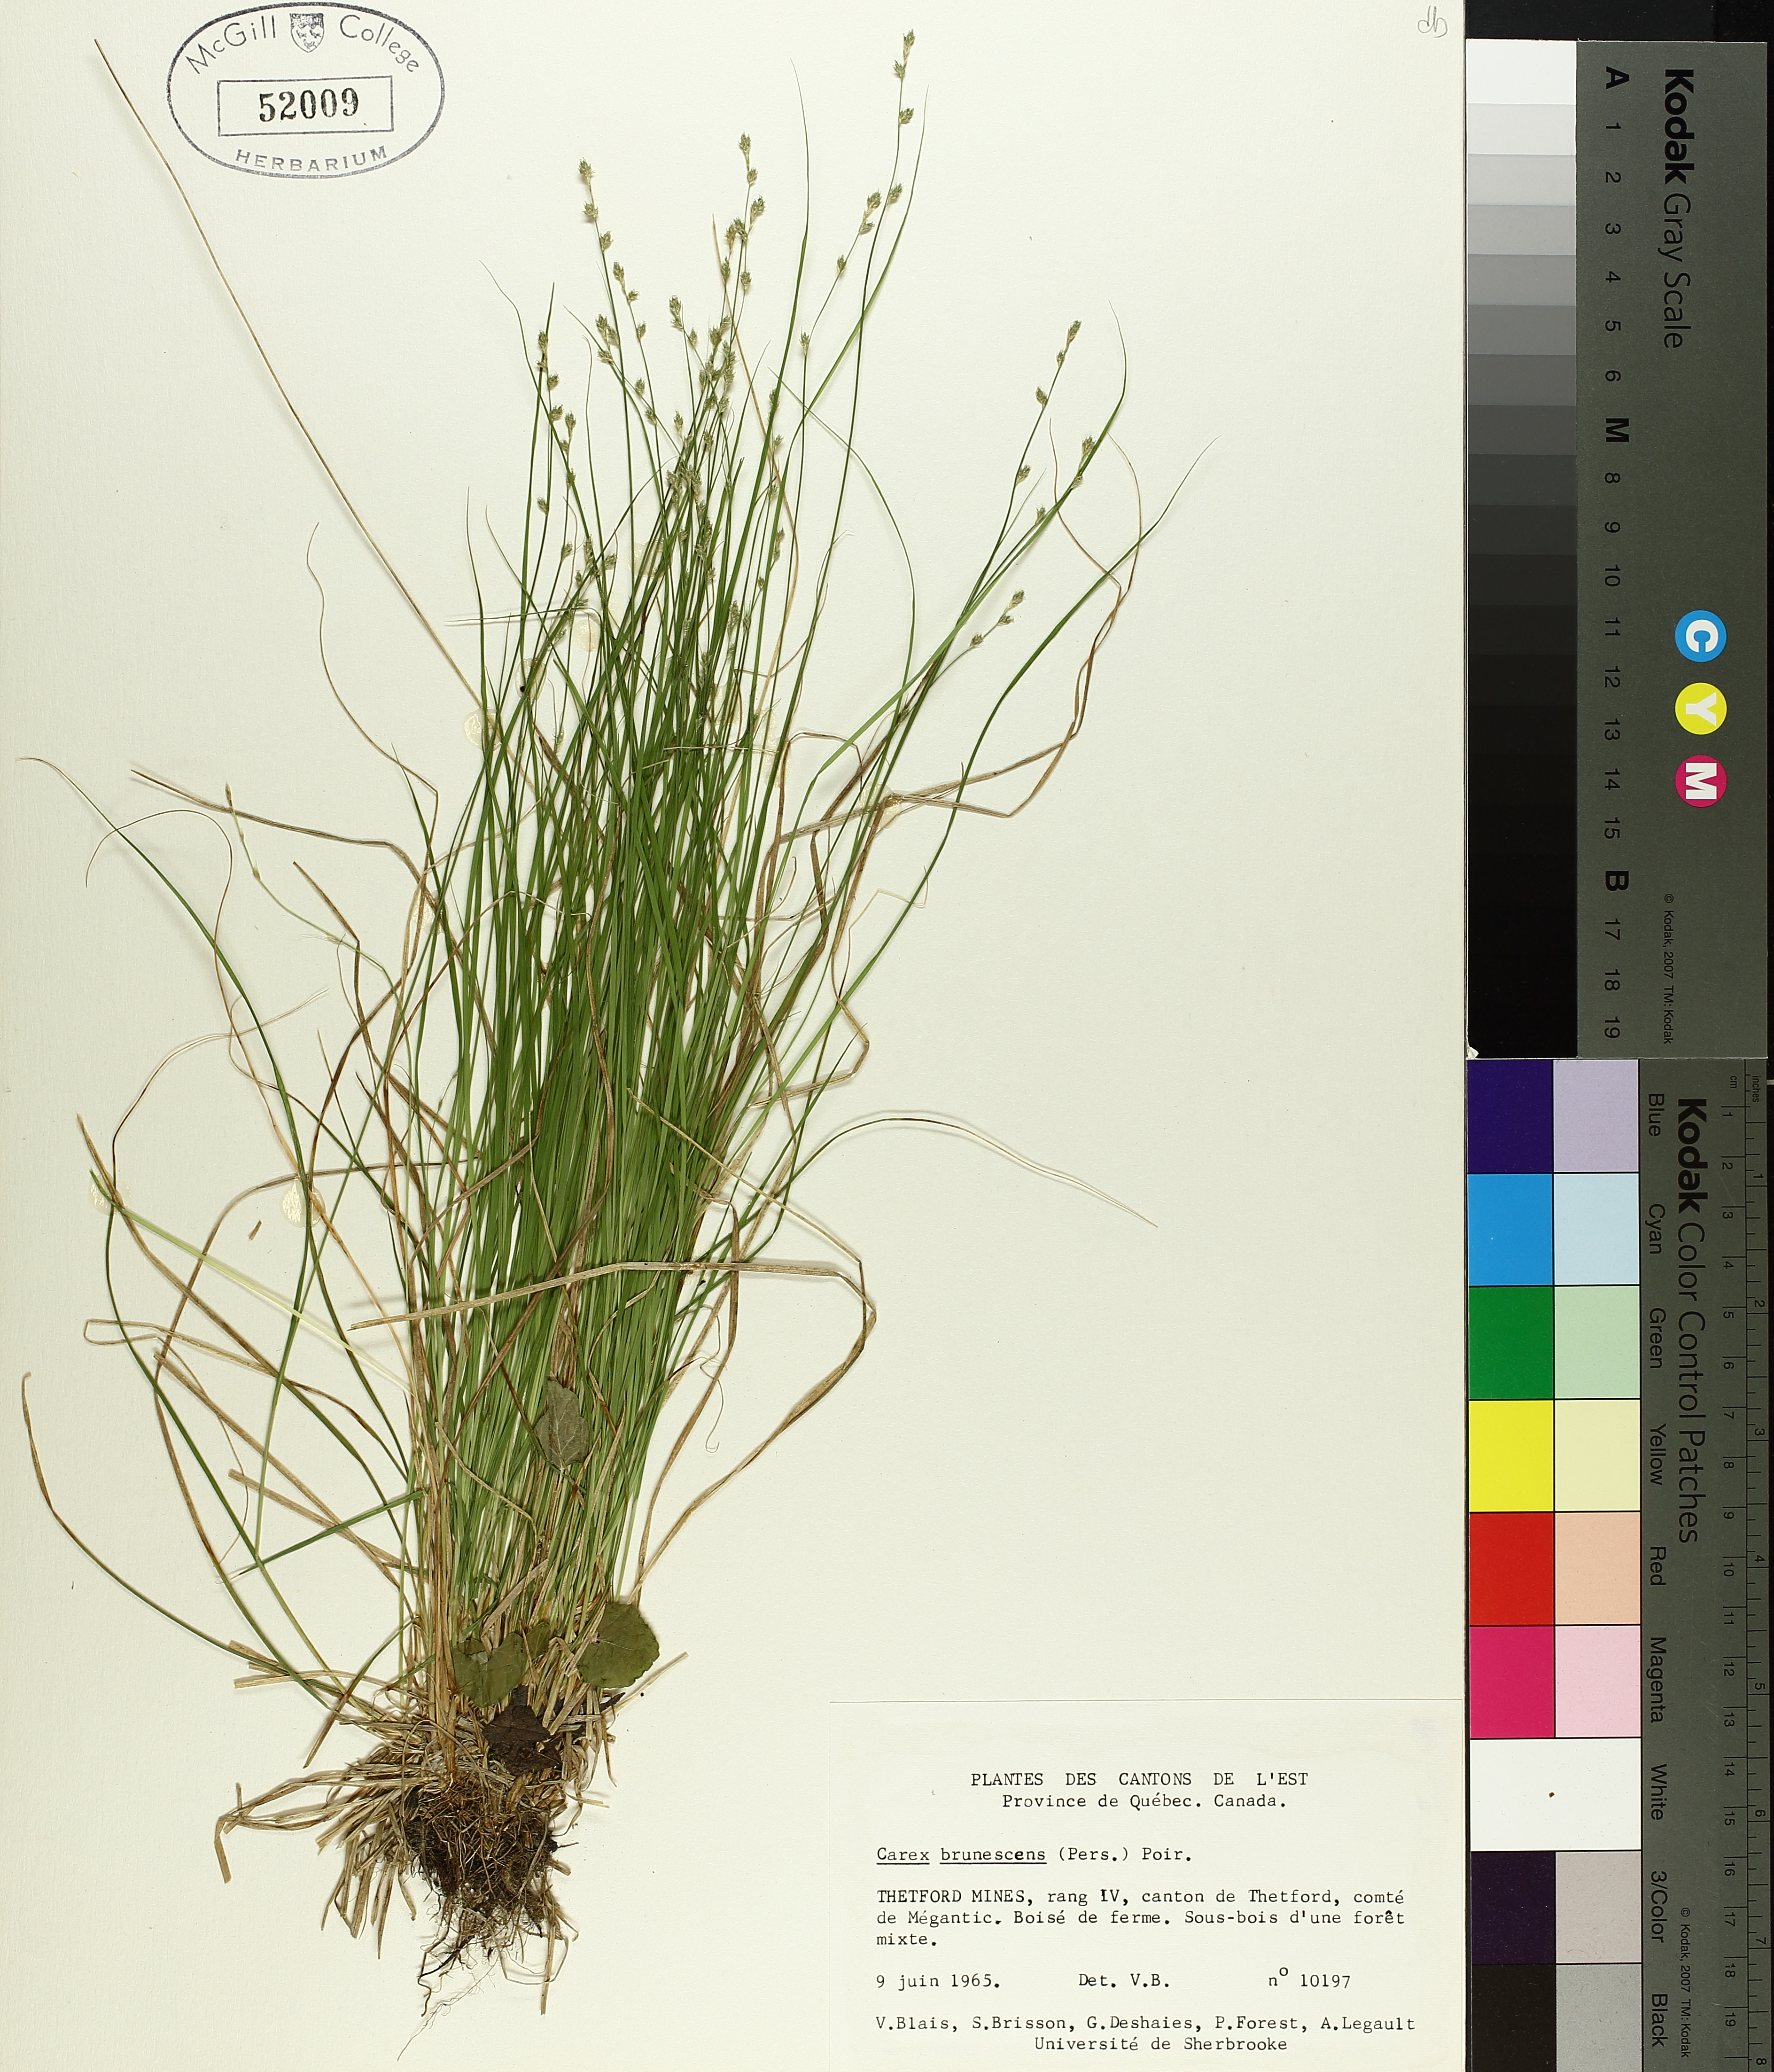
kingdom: Plantae
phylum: Tracheophyta
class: Liliopsida
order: Poales
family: Cyperaceae
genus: Carex
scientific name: Carex brunnescens
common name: Brown sedge
